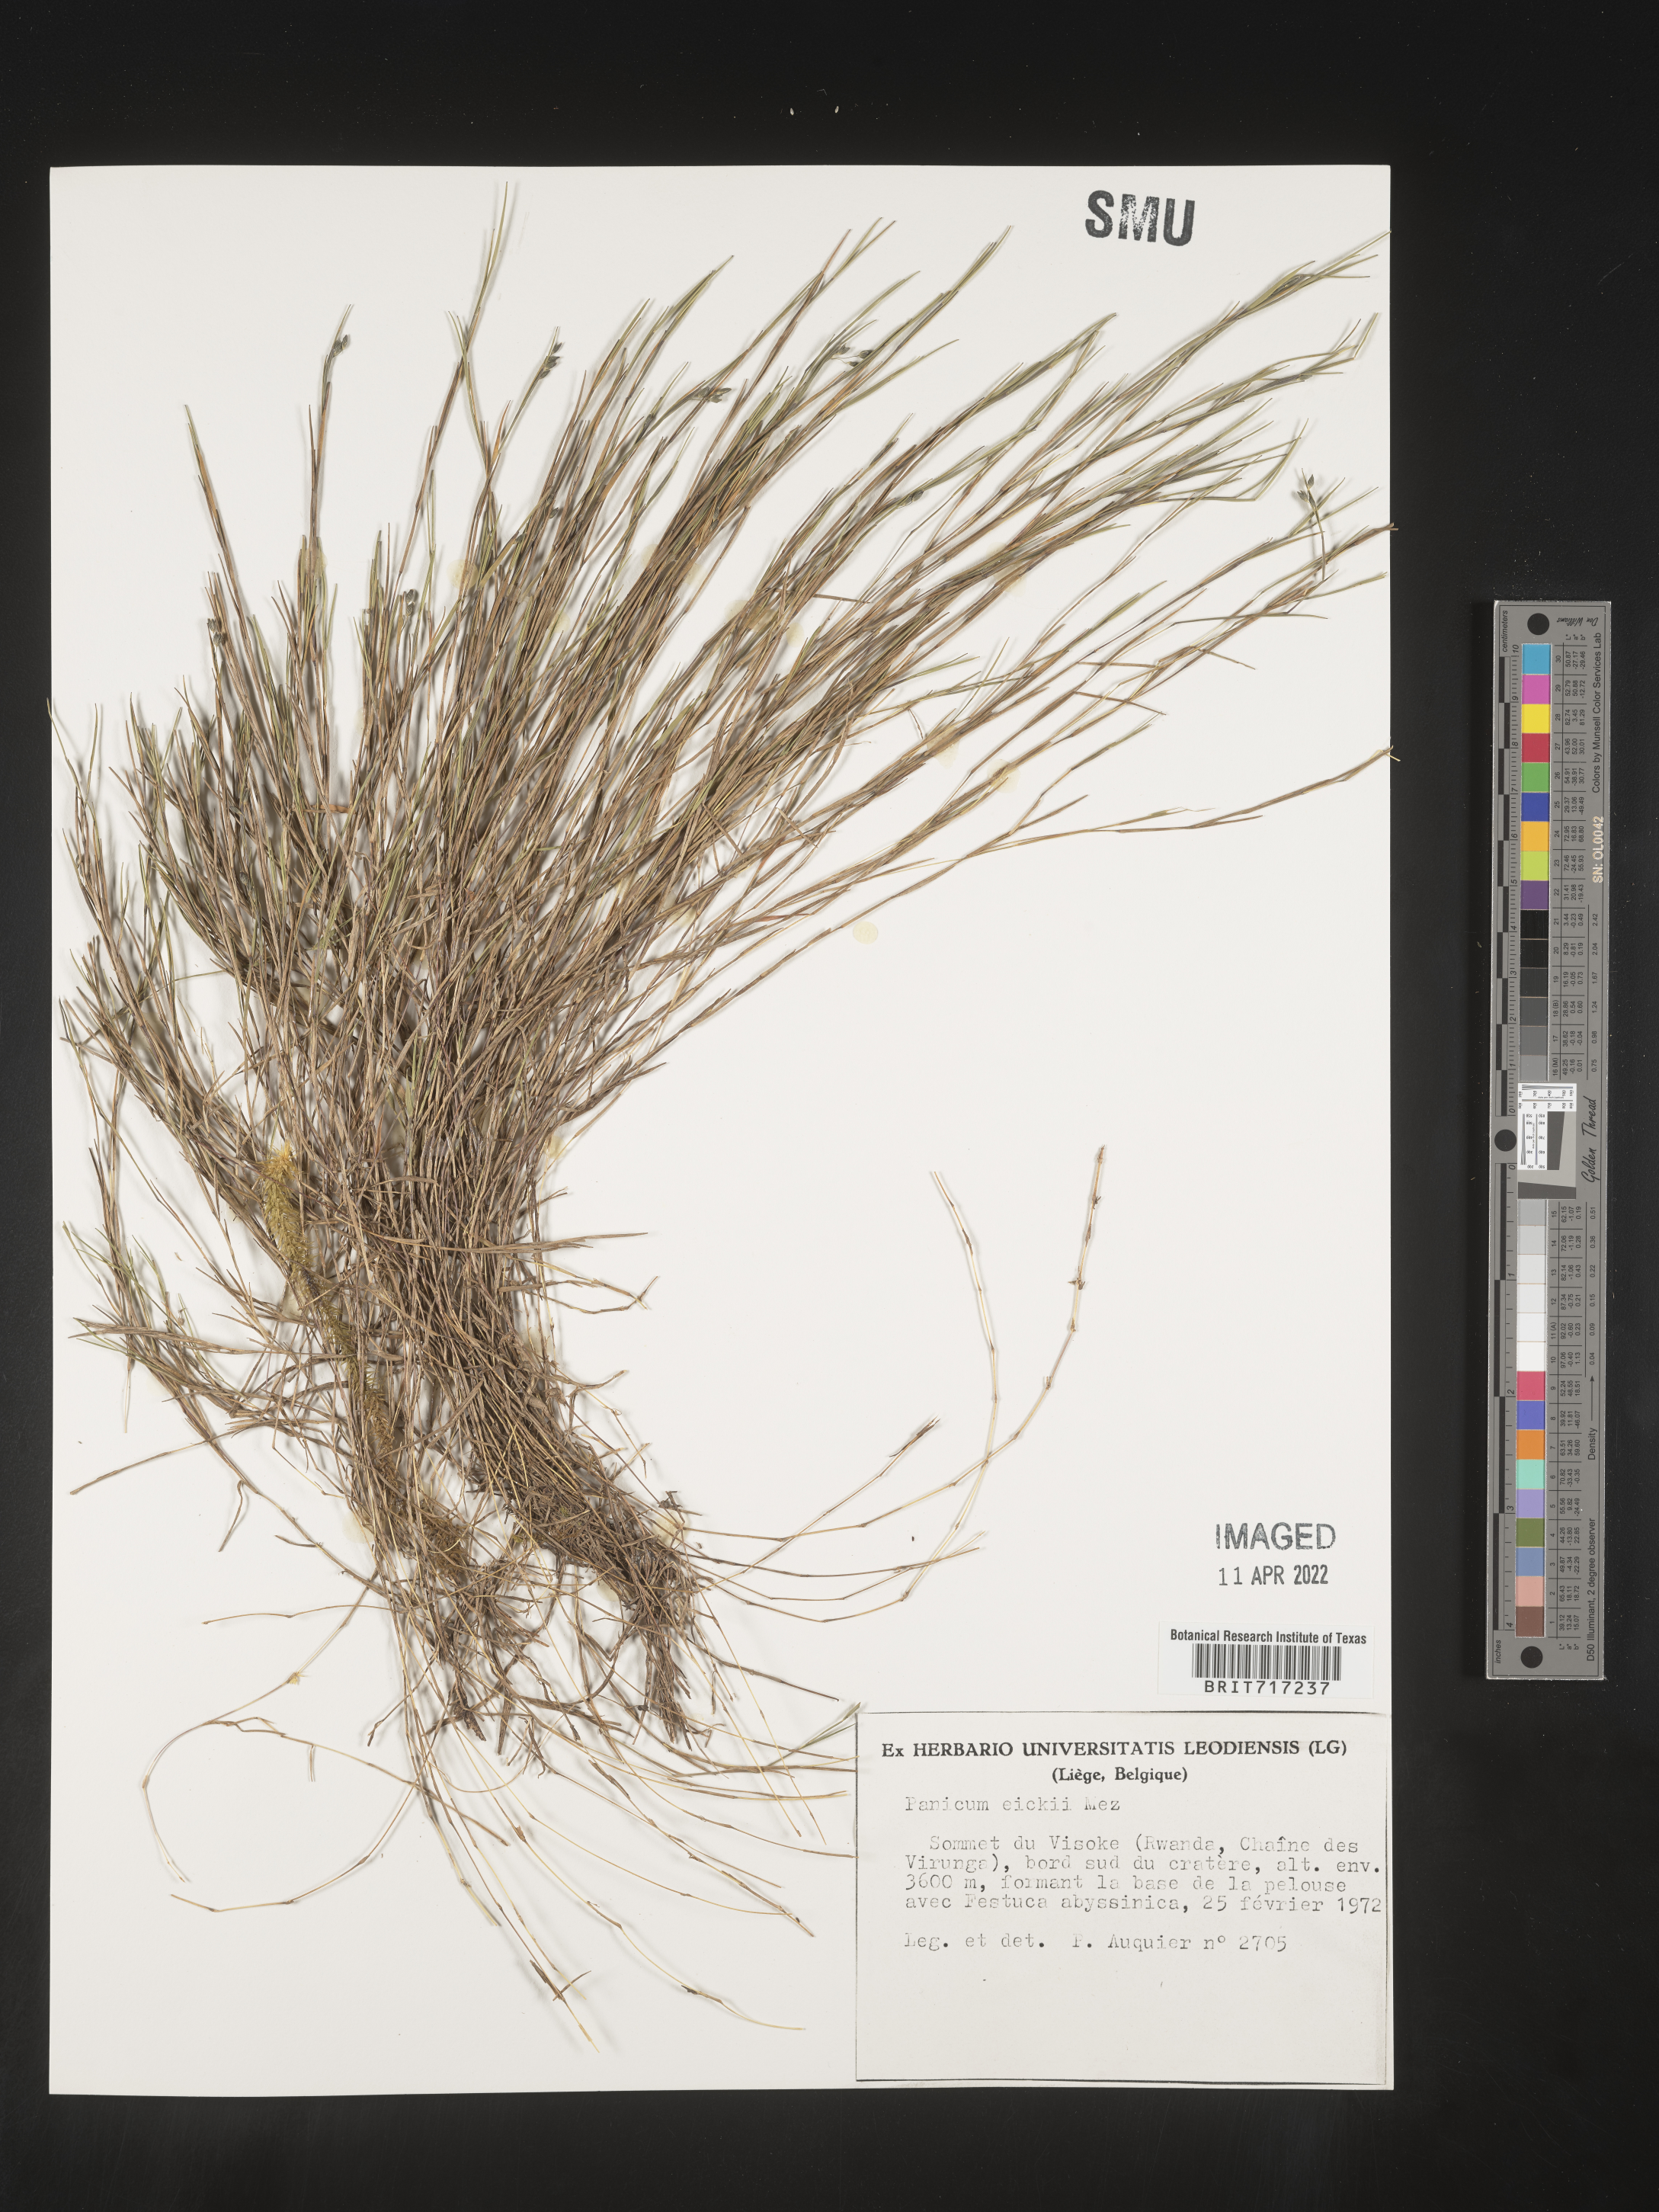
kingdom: Plantae
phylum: Tracheophyta
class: Liliopsida
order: Poales
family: Poaceae
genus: Panicum
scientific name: Panicum
